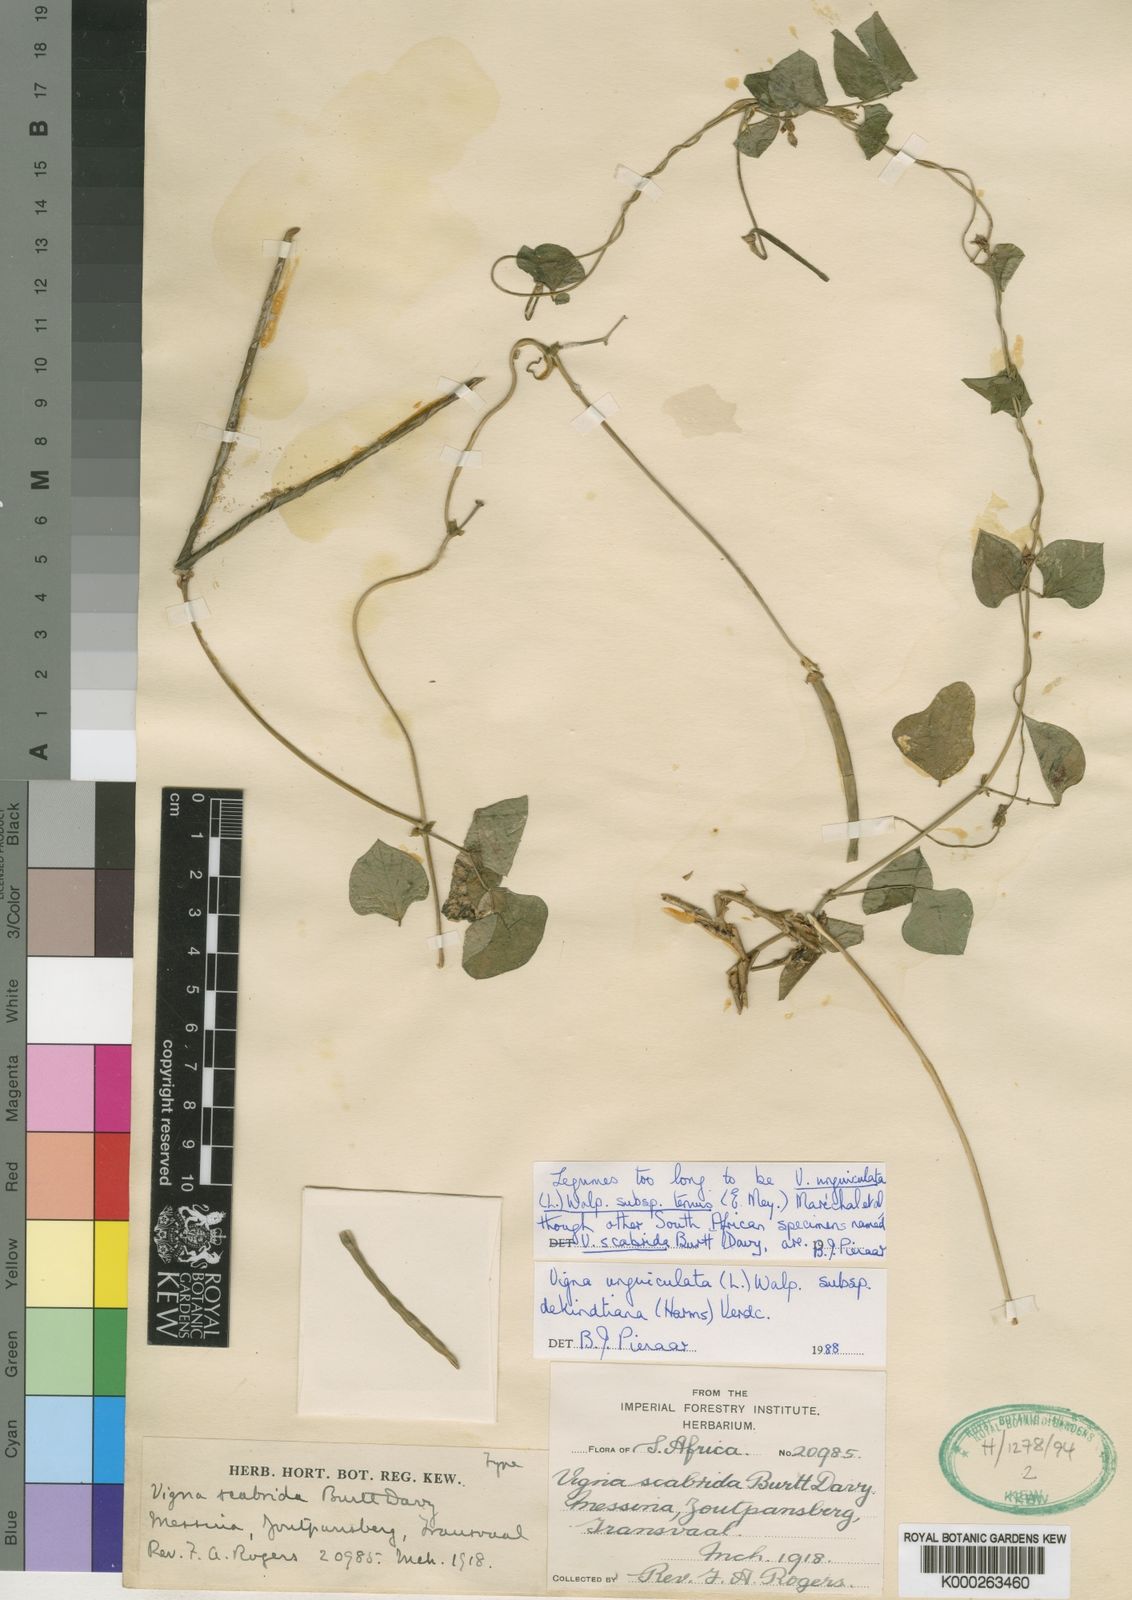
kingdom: Plantae
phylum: Tracheophyta
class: Magnoliopsida
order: Fabales
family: Fabaceae
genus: Vigna
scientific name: Vigna unguiculata
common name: Cowpea
